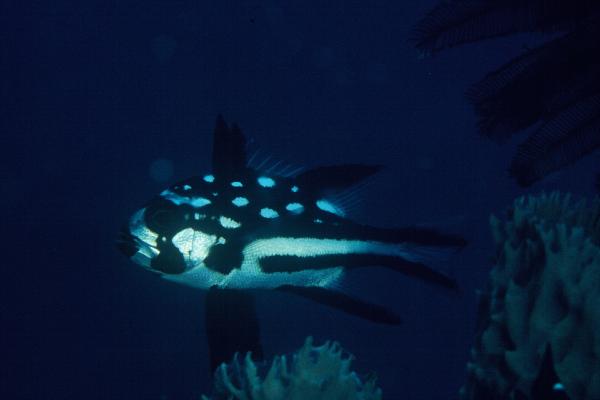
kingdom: Animalia
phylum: Chordata
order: Perciformes
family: Lutjanidae
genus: Macolor
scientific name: Macolor macularis
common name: Midnight snapper
